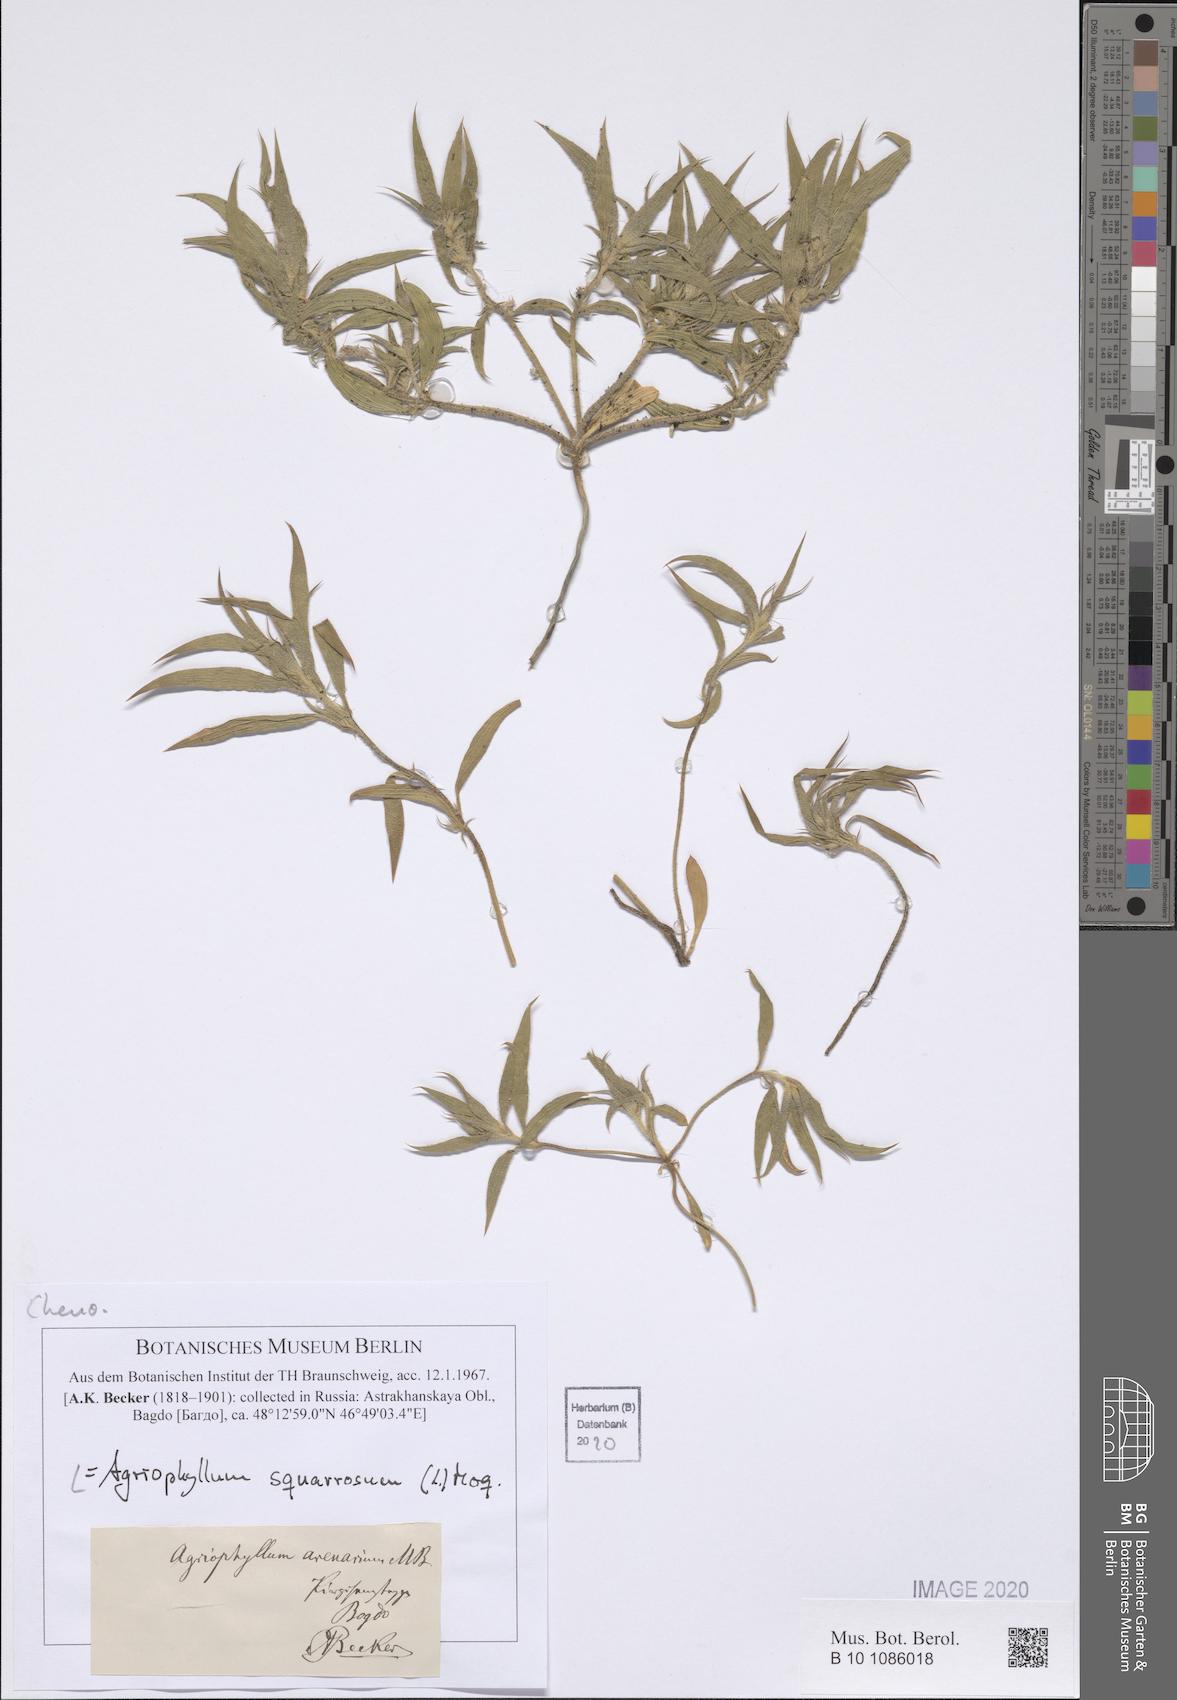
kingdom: Plantae
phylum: Tracheophyta
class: Magnoliopsida
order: Caryophyllales
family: Amaranthaceae
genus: Corispermum
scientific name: Corispermum squarrosum
